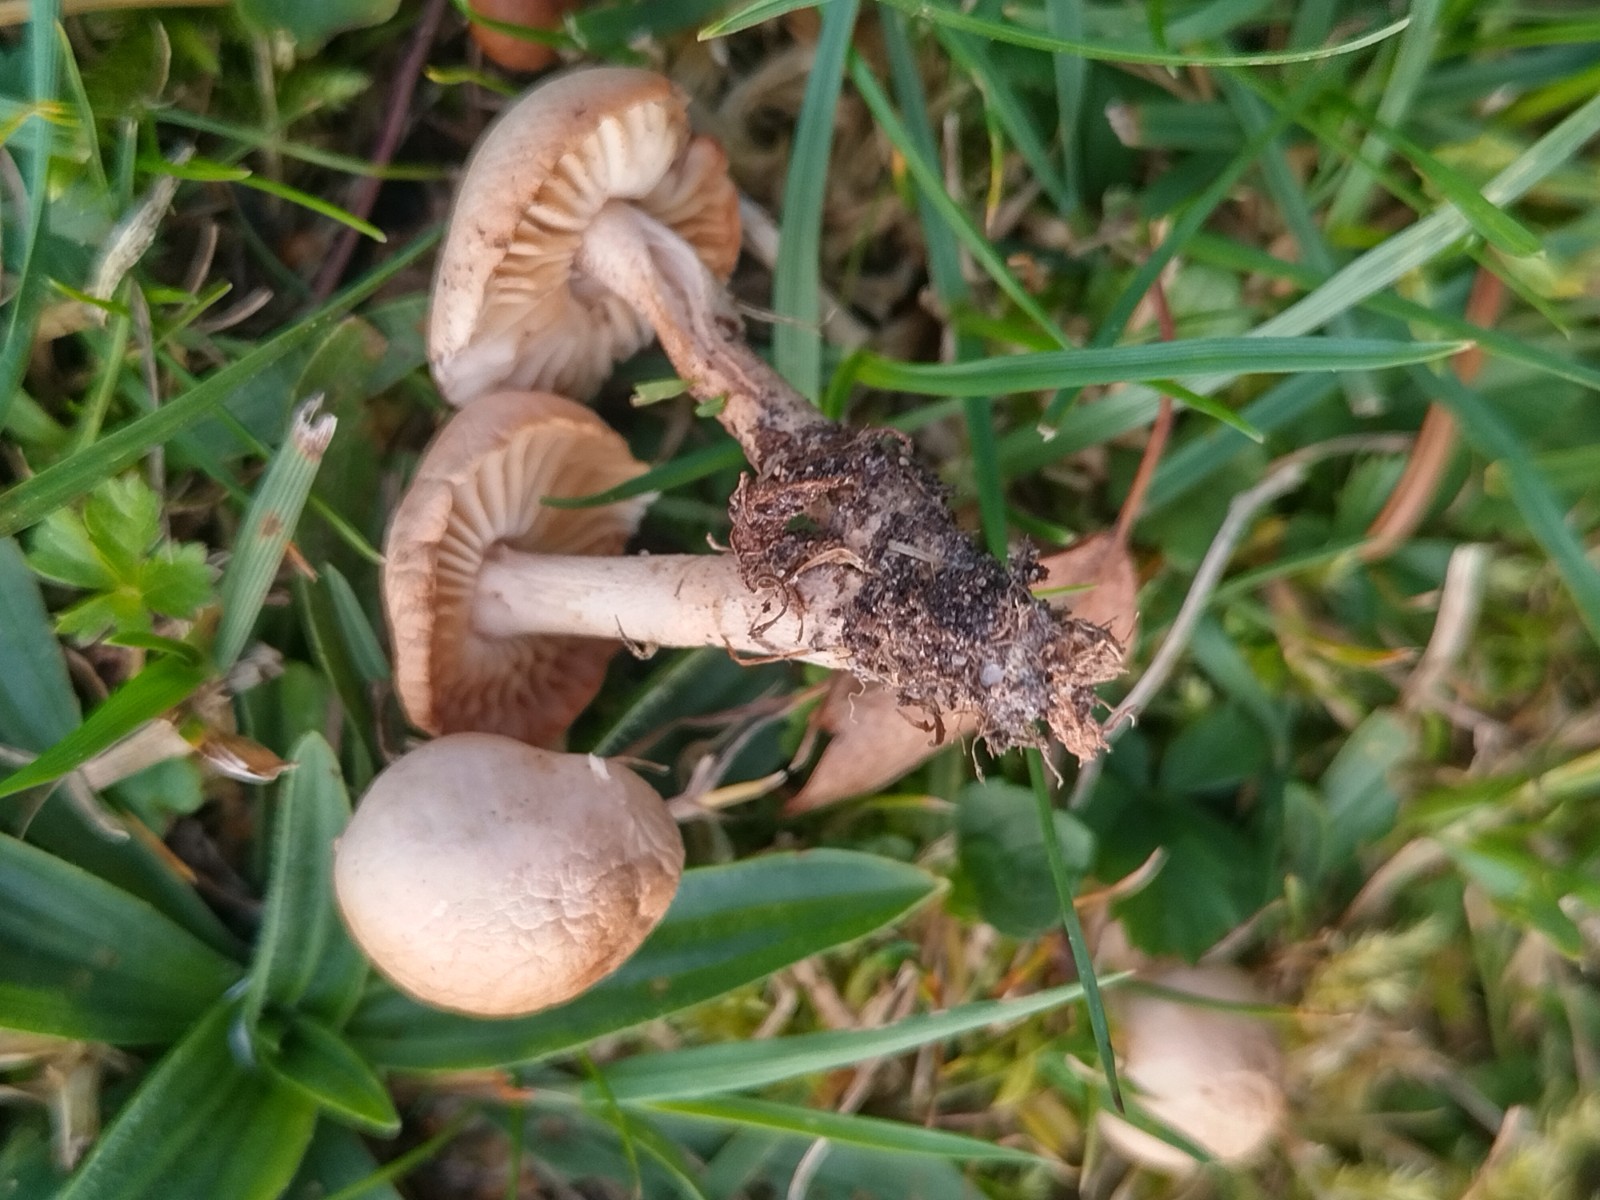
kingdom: Fungi
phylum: Basidiomycota
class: Agaricomycetes
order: Agaricales
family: Marasmiaceae
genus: Marasmius
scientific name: Marasmius oreades
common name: elledans-bruskhat
